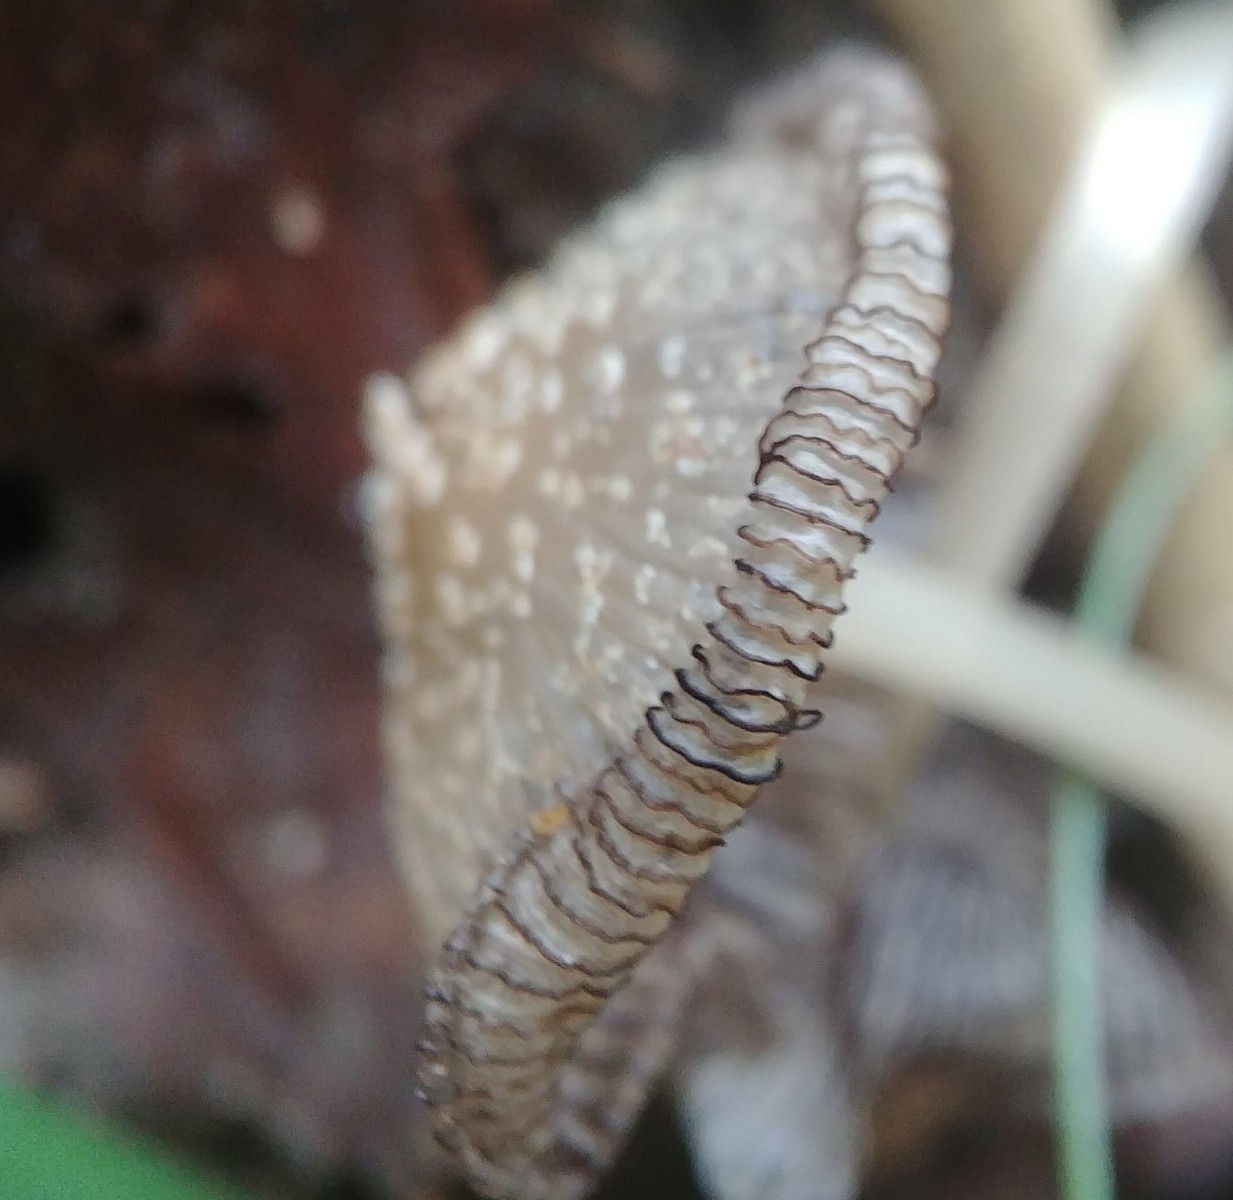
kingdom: Fungi
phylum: Basidiomycota
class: Agaricomycetes
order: Agaricales
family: Psathyrellaceae
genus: Coprinellus
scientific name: Coprinellus
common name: blækhat
